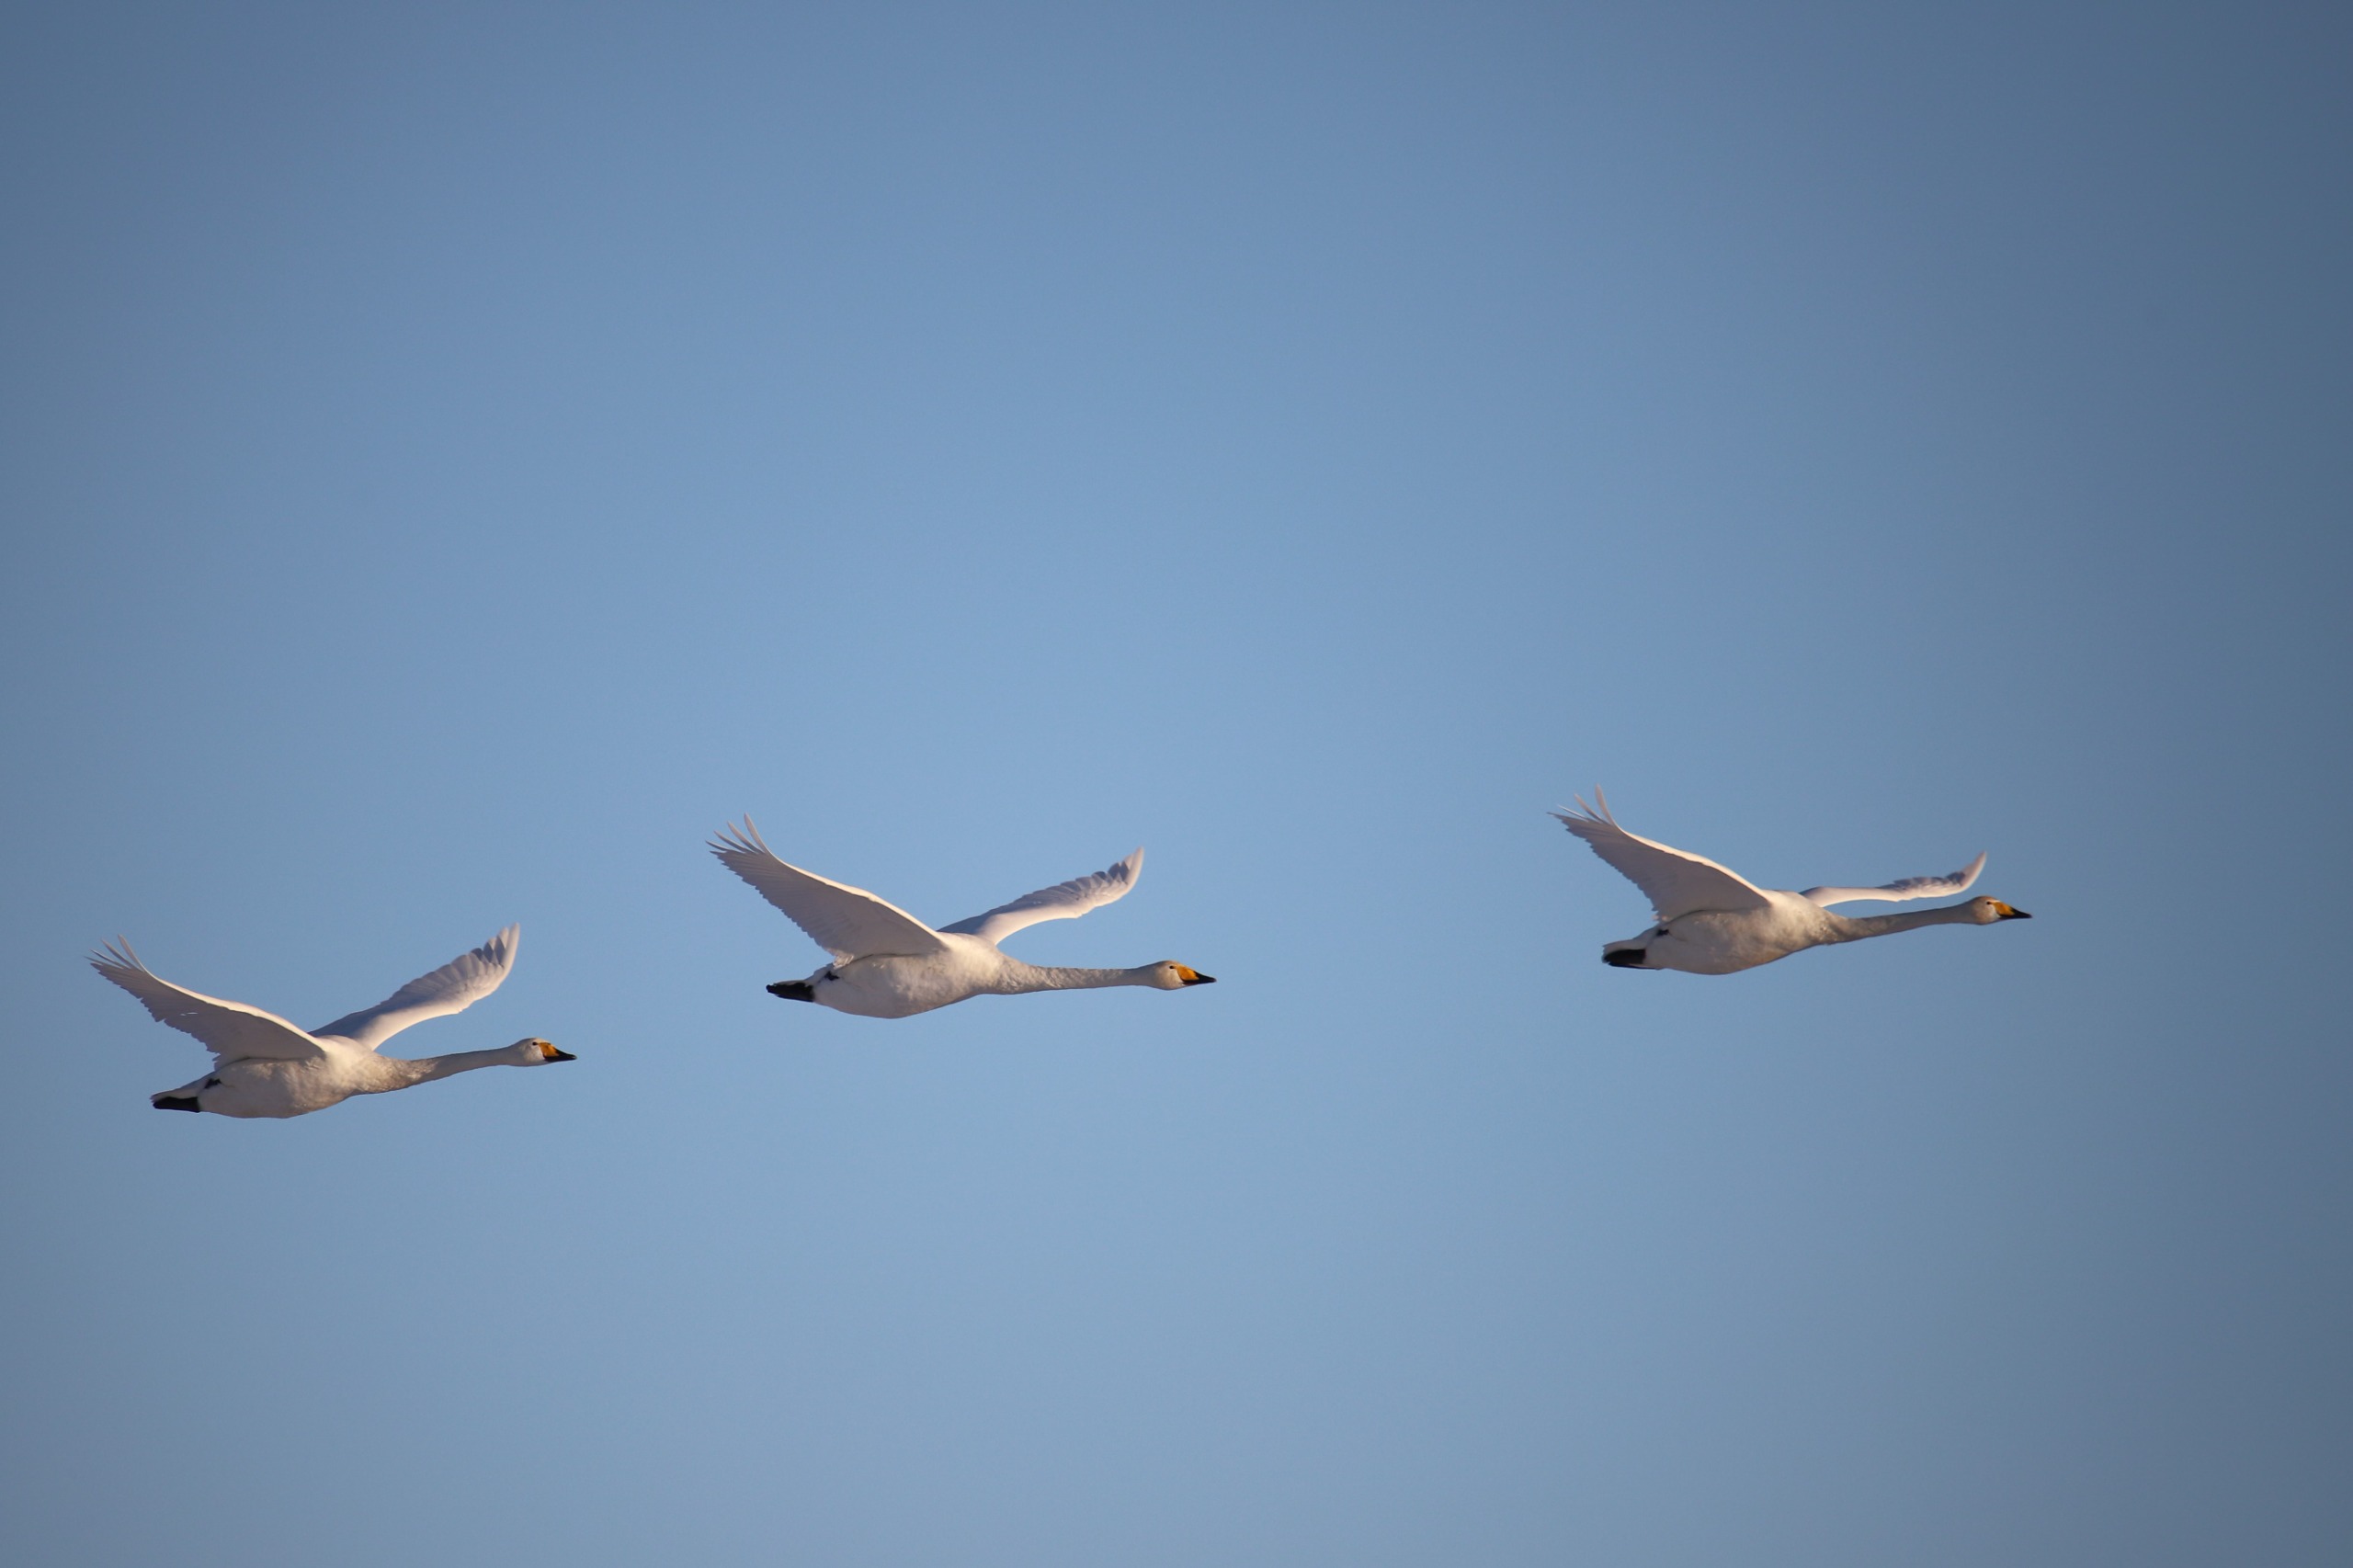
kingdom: Animalia
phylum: Chordata
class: Aves
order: Anseriformes
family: Anatidae
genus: Cygnus
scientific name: Cygnus cygnus
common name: Sangsvane
